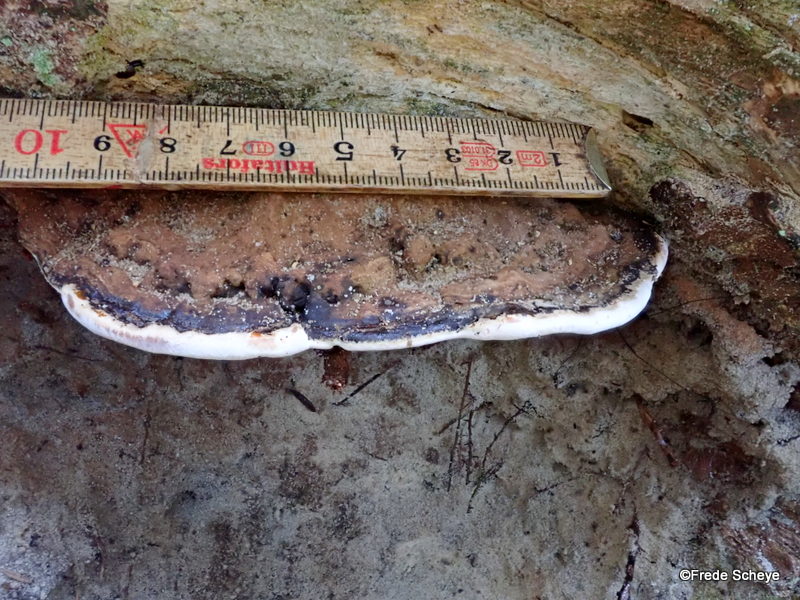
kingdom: Fungi
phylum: Basidiomycota
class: Agaricomycetes
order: Polyporales
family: Polyporaceae
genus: Ganoderma
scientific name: Ganoderma applanatum
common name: flad lakporesvamp
